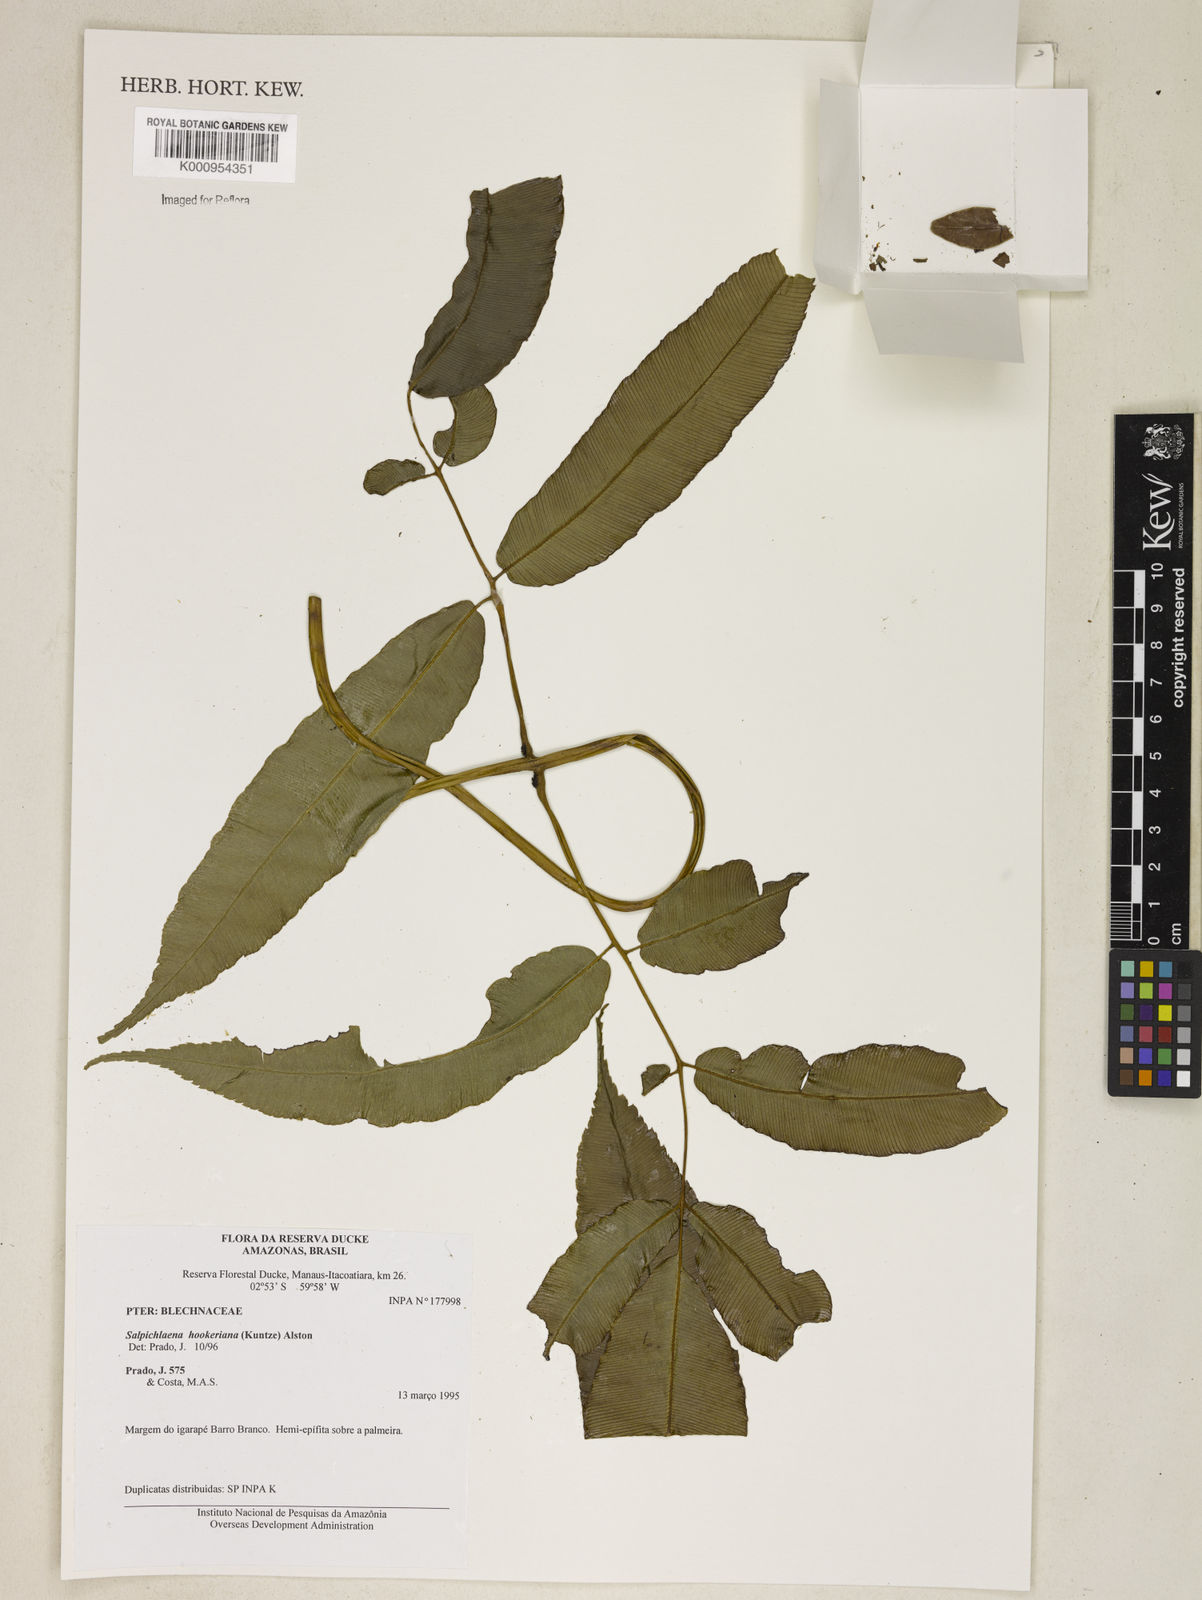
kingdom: Plantae
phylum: Tracheophyta
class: Polypodiopsida
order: Polypodiales
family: Blechnaceae
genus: Blechnum
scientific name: Blechnum
